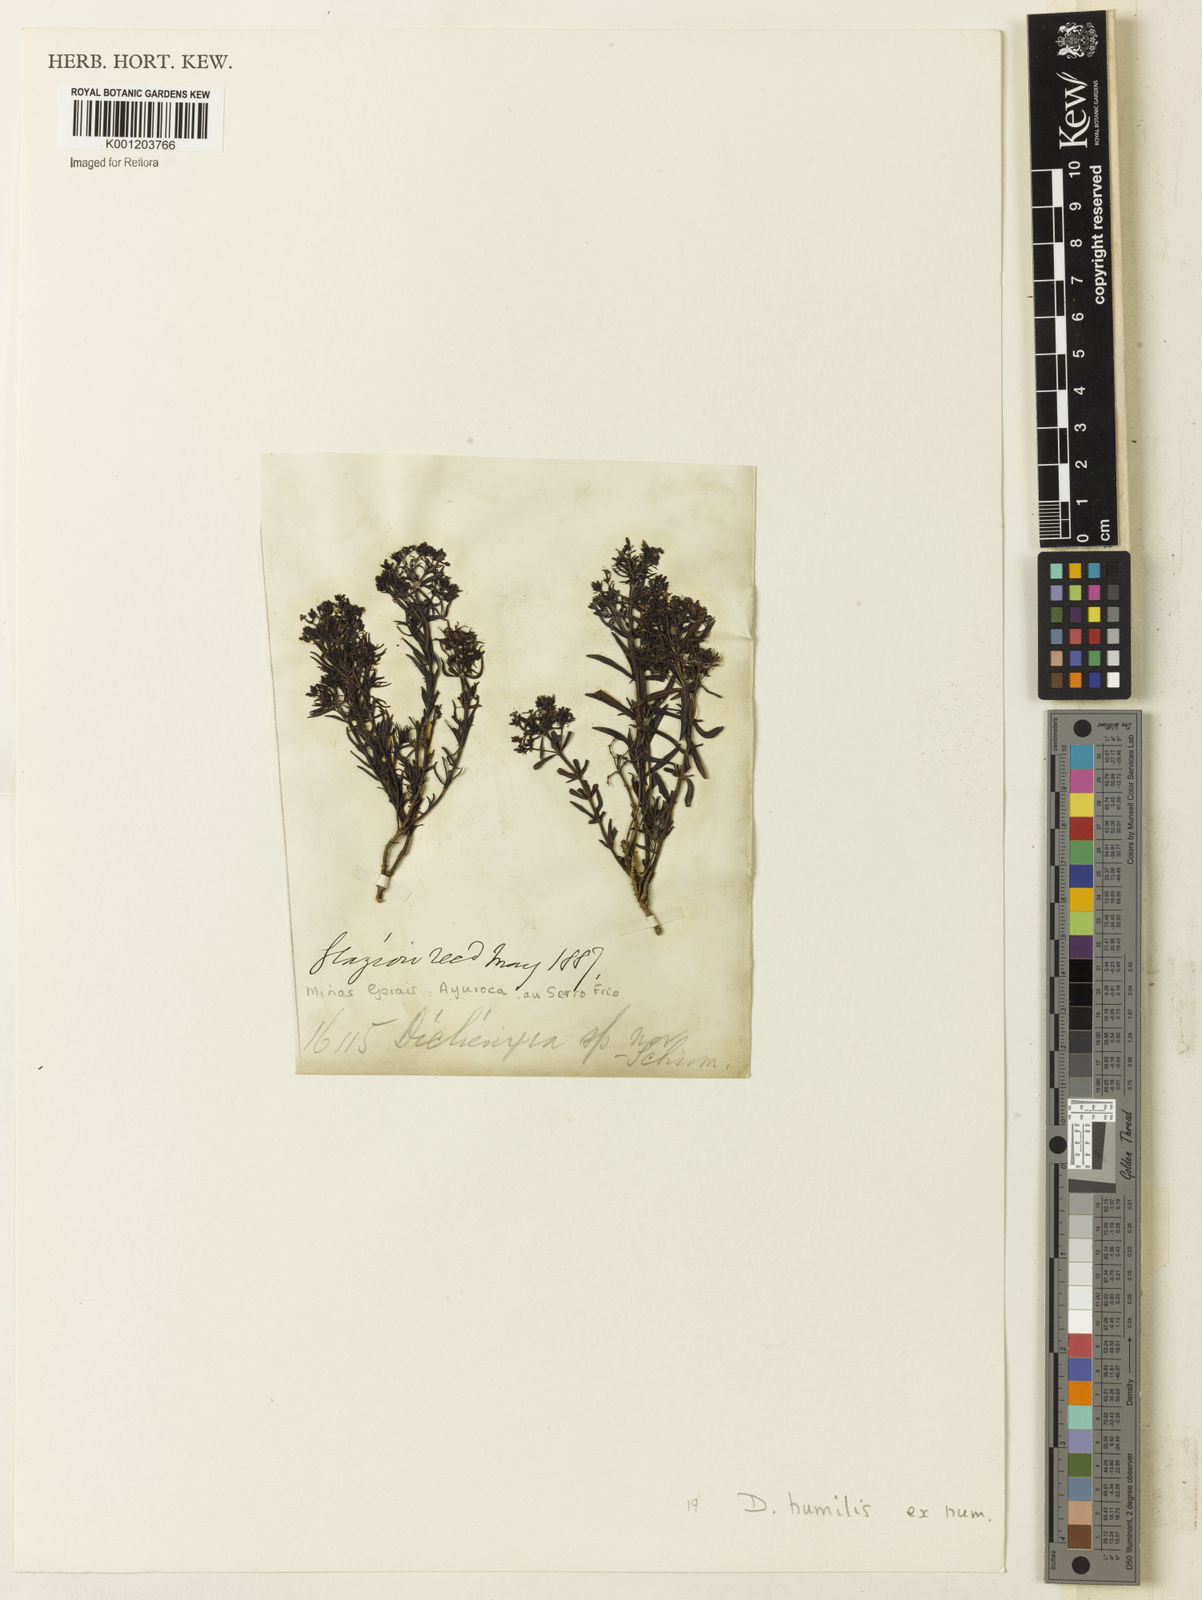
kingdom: Plantae
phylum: Tracheophyta
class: Magnoliopsida
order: Gentianales
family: Rubiaceae
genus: Declieuxia
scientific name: Declieuxia
